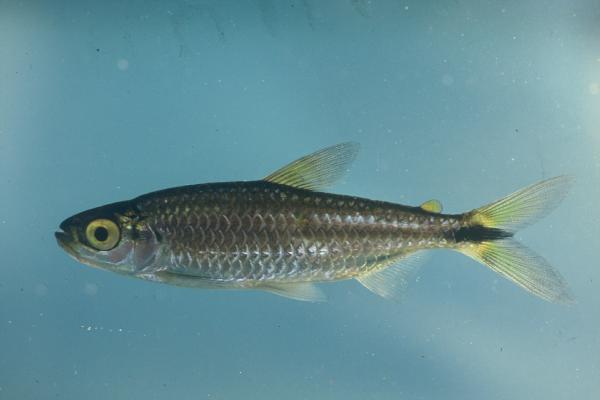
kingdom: Animalia
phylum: Chordata
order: Characiformes
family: Alestidae
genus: Brycinus
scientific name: Brycinus lateralis
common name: Striped robber
